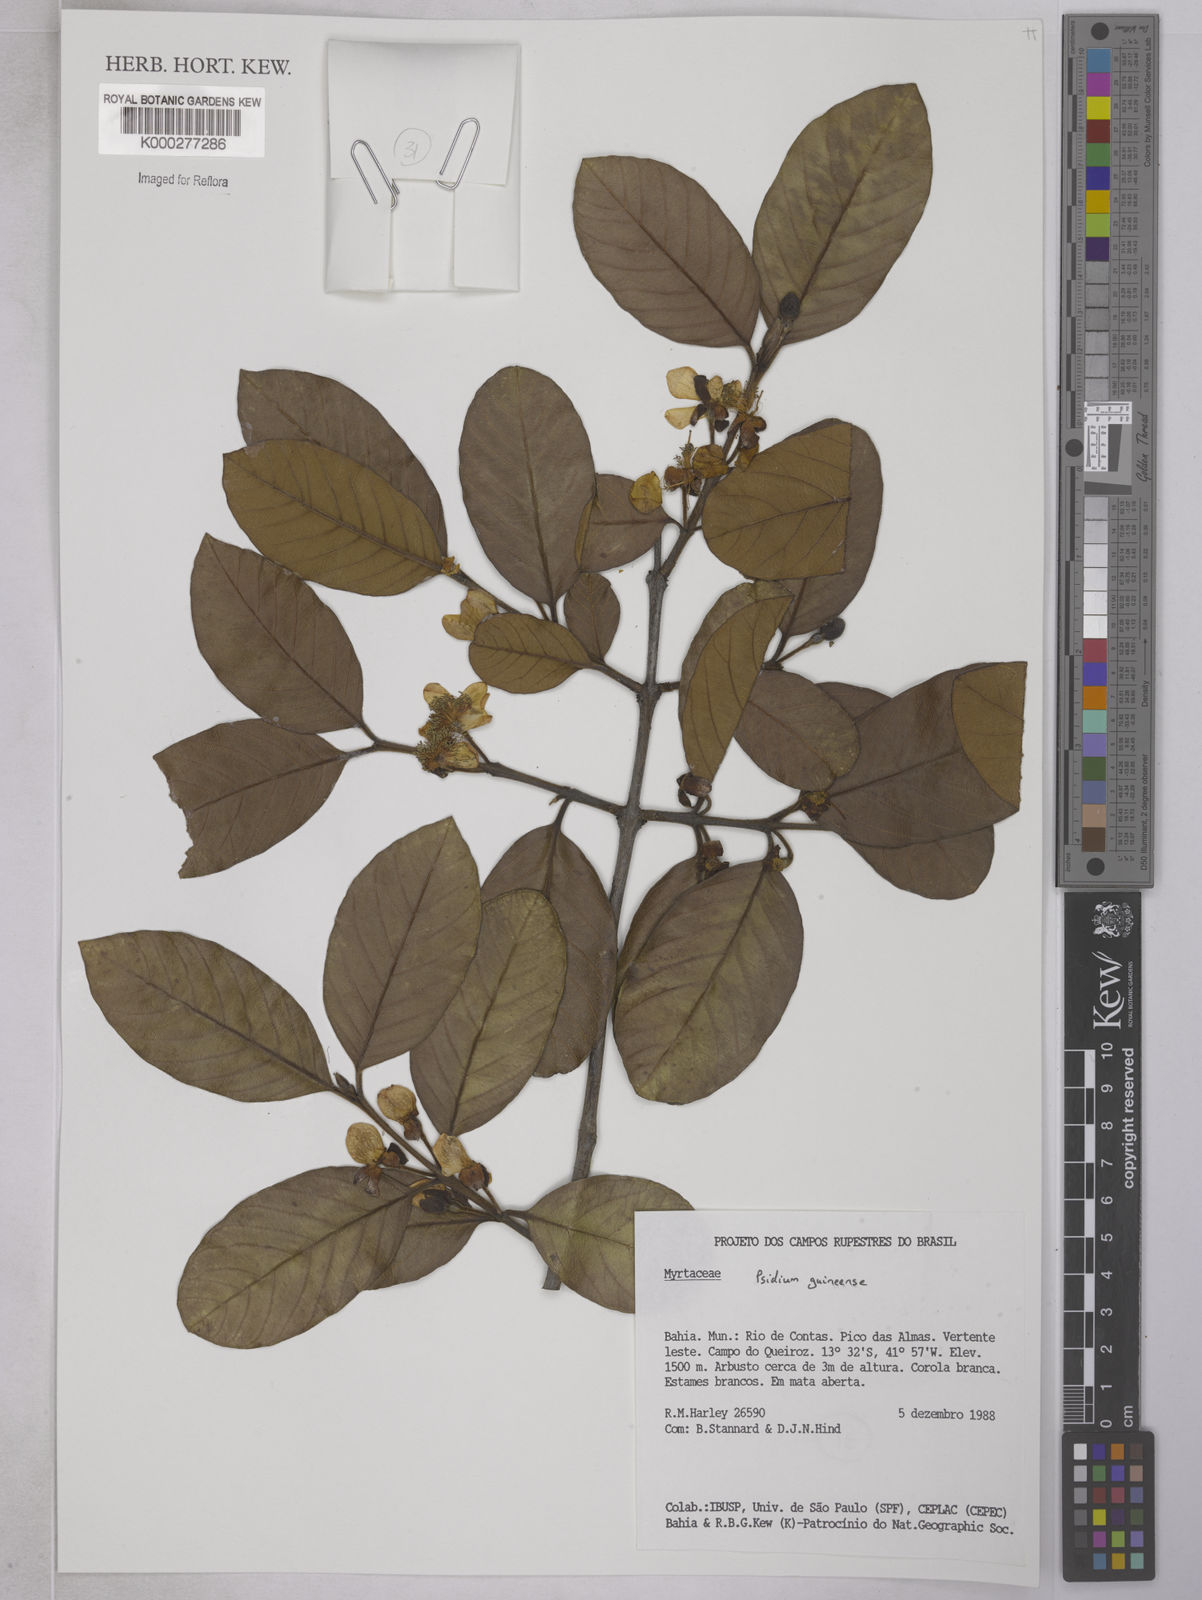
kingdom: Plantae
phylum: Tracheophyta
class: Magnoliopsida
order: Myrtales
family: Myrtaceae
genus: Psidium
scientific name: Psidium guineense
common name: Brazilian guava
